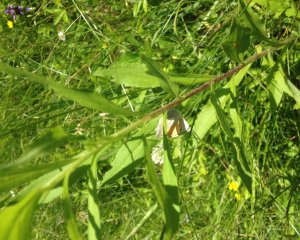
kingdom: Animalia
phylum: Arthropoda
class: Insecta
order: Lepidoptera
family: Nymphalidae
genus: Coenonympha
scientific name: Coenonympha tullia
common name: Large Heath
